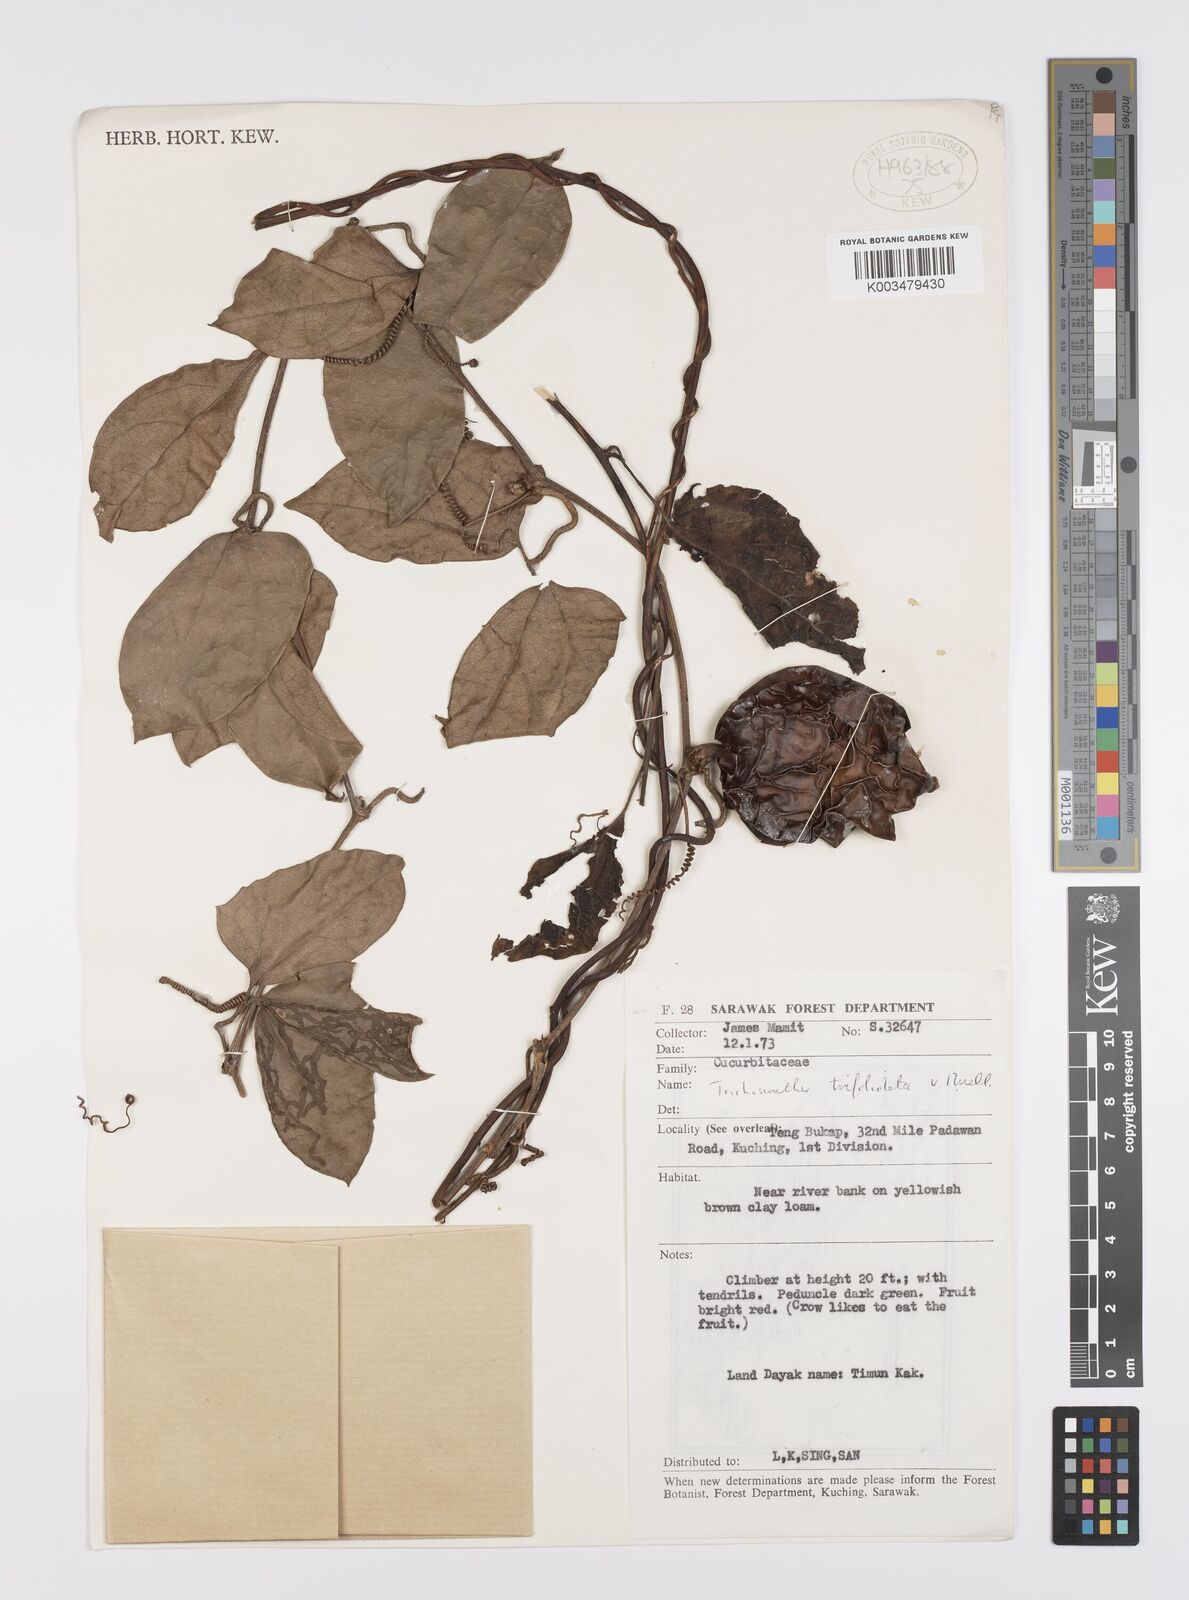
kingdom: Plantae
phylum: Tracheophyta
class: Magnoliopsida
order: Cucurbitales
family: Cucurbitaceae
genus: Trichosanthes
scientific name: Trichosanthes pentaphylla
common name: Red gourd
